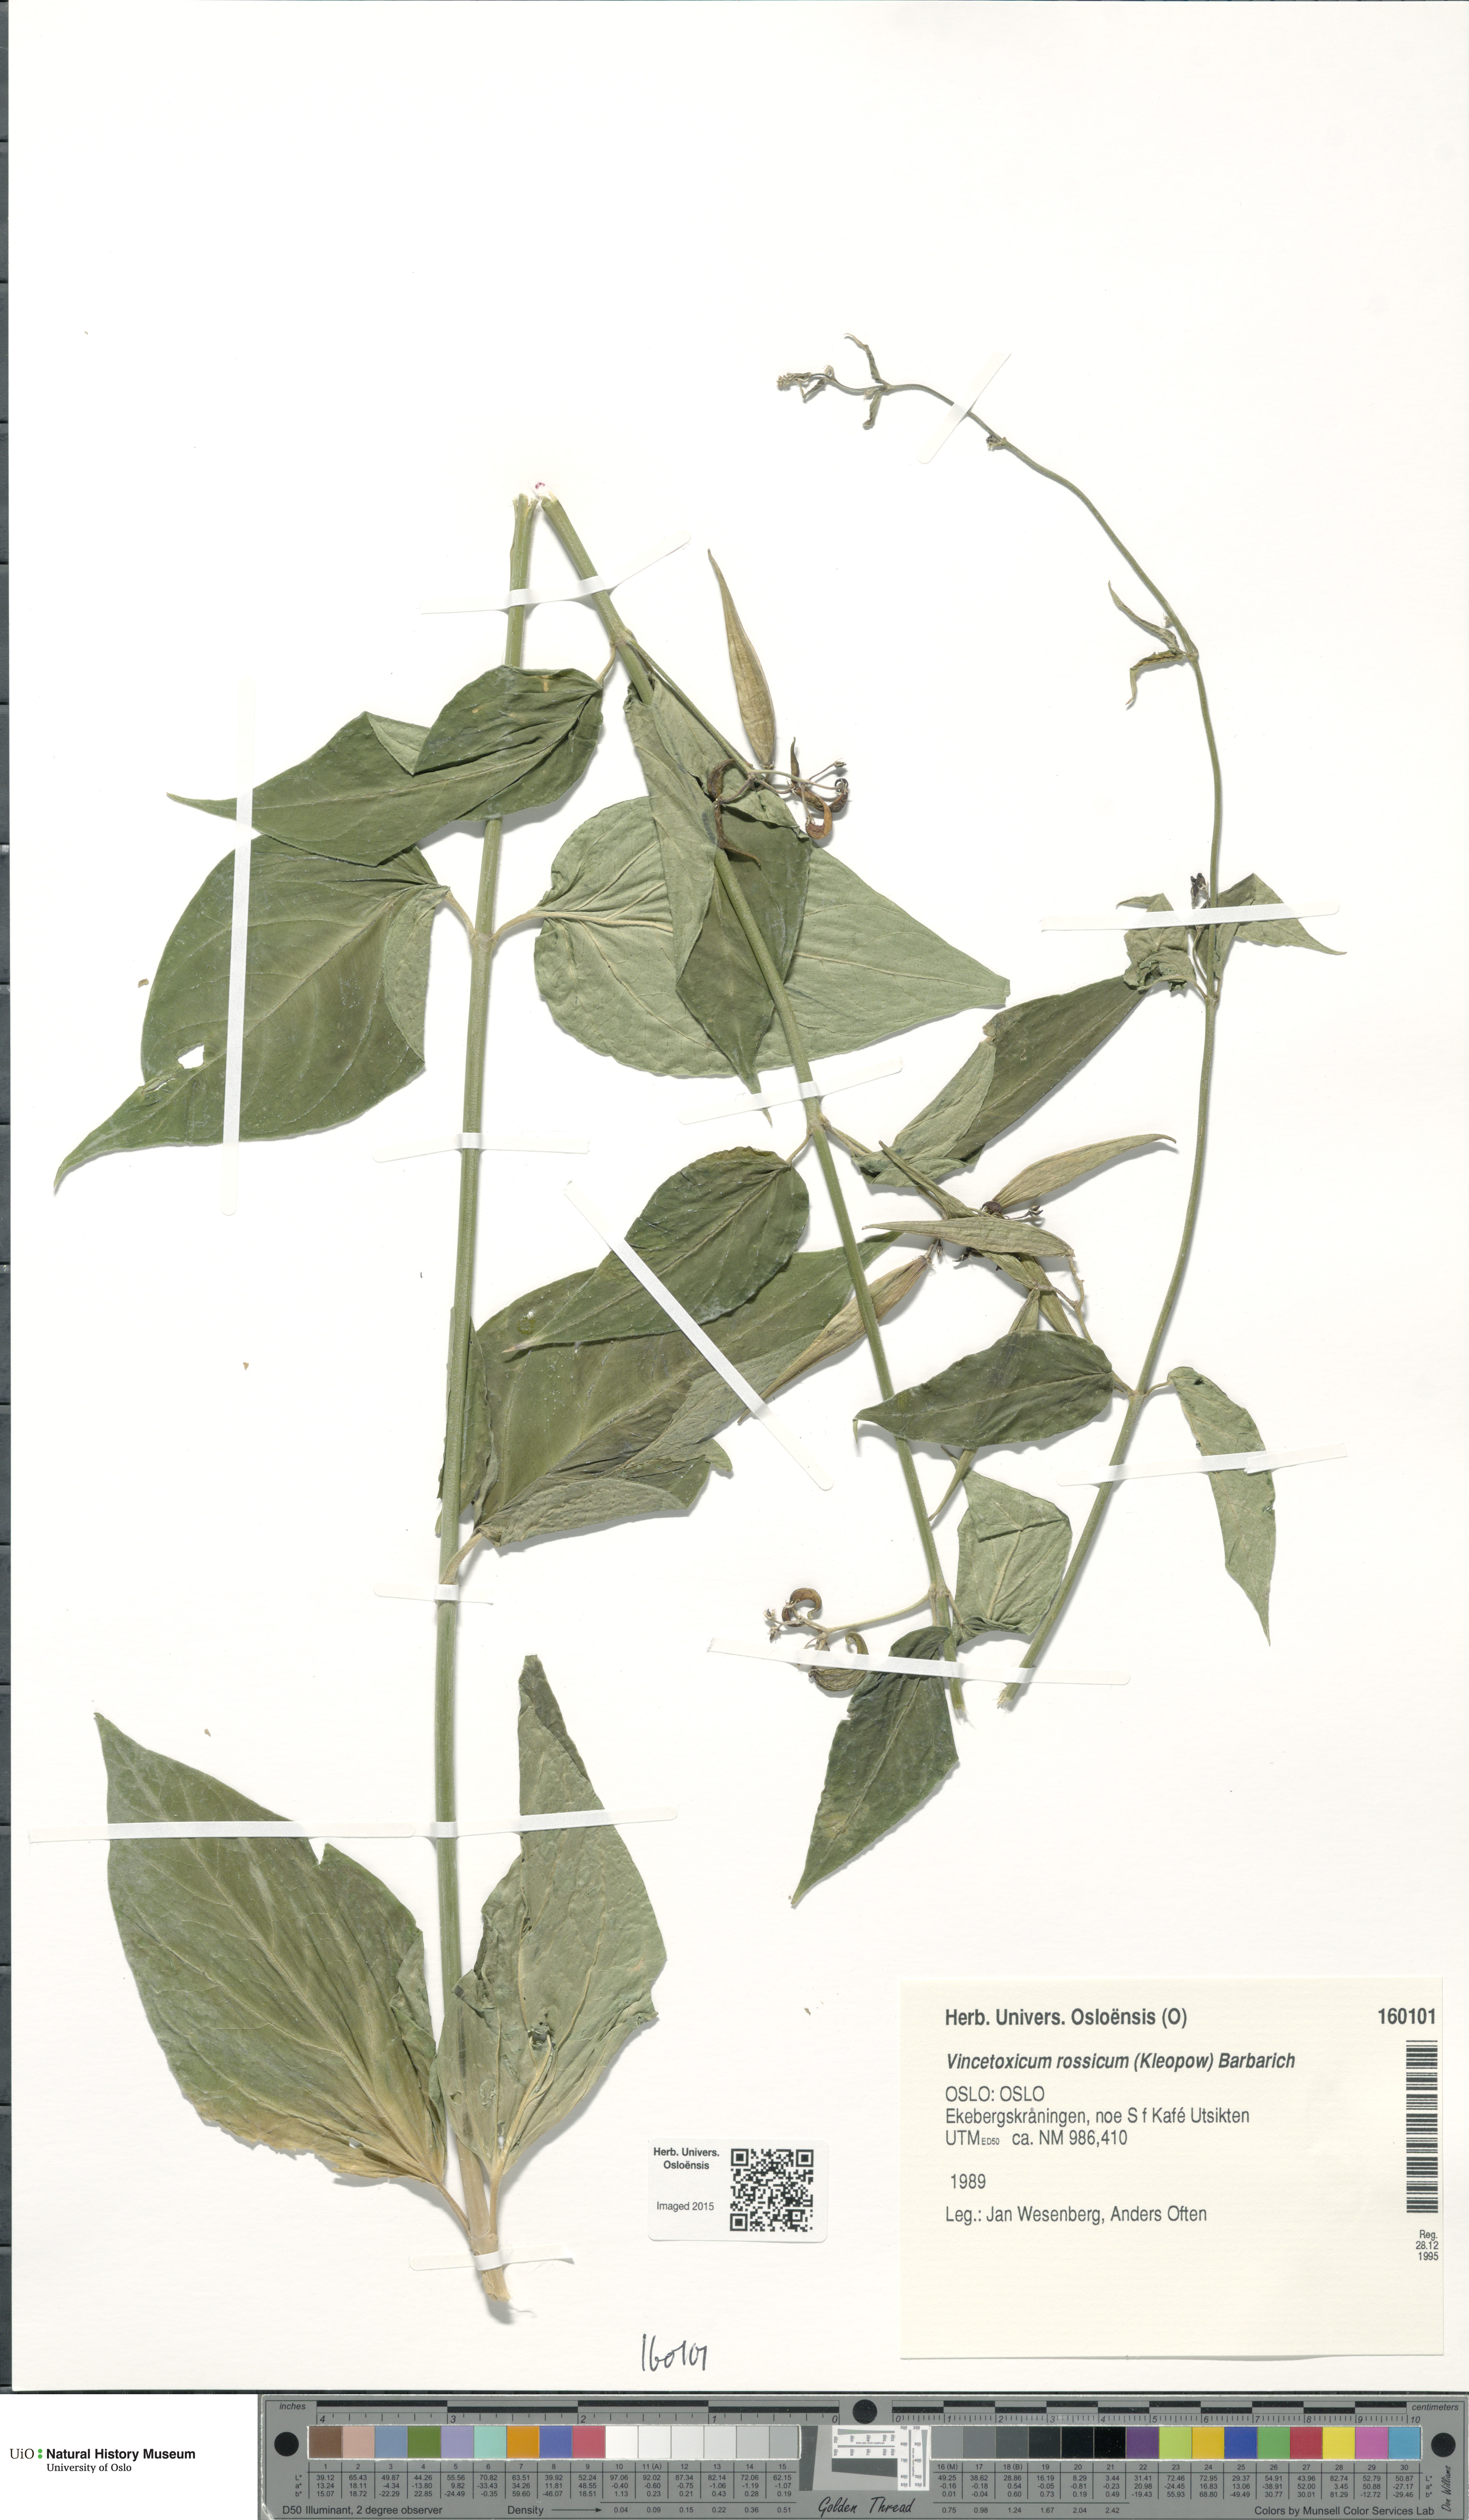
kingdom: Plantae
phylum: Tracheophyta
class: Magnoliopsida
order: Gentianales
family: Apocynaceae
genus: Vincetoxicum
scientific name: Vincetoxicum rossicum
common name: Dog-strangling vine
